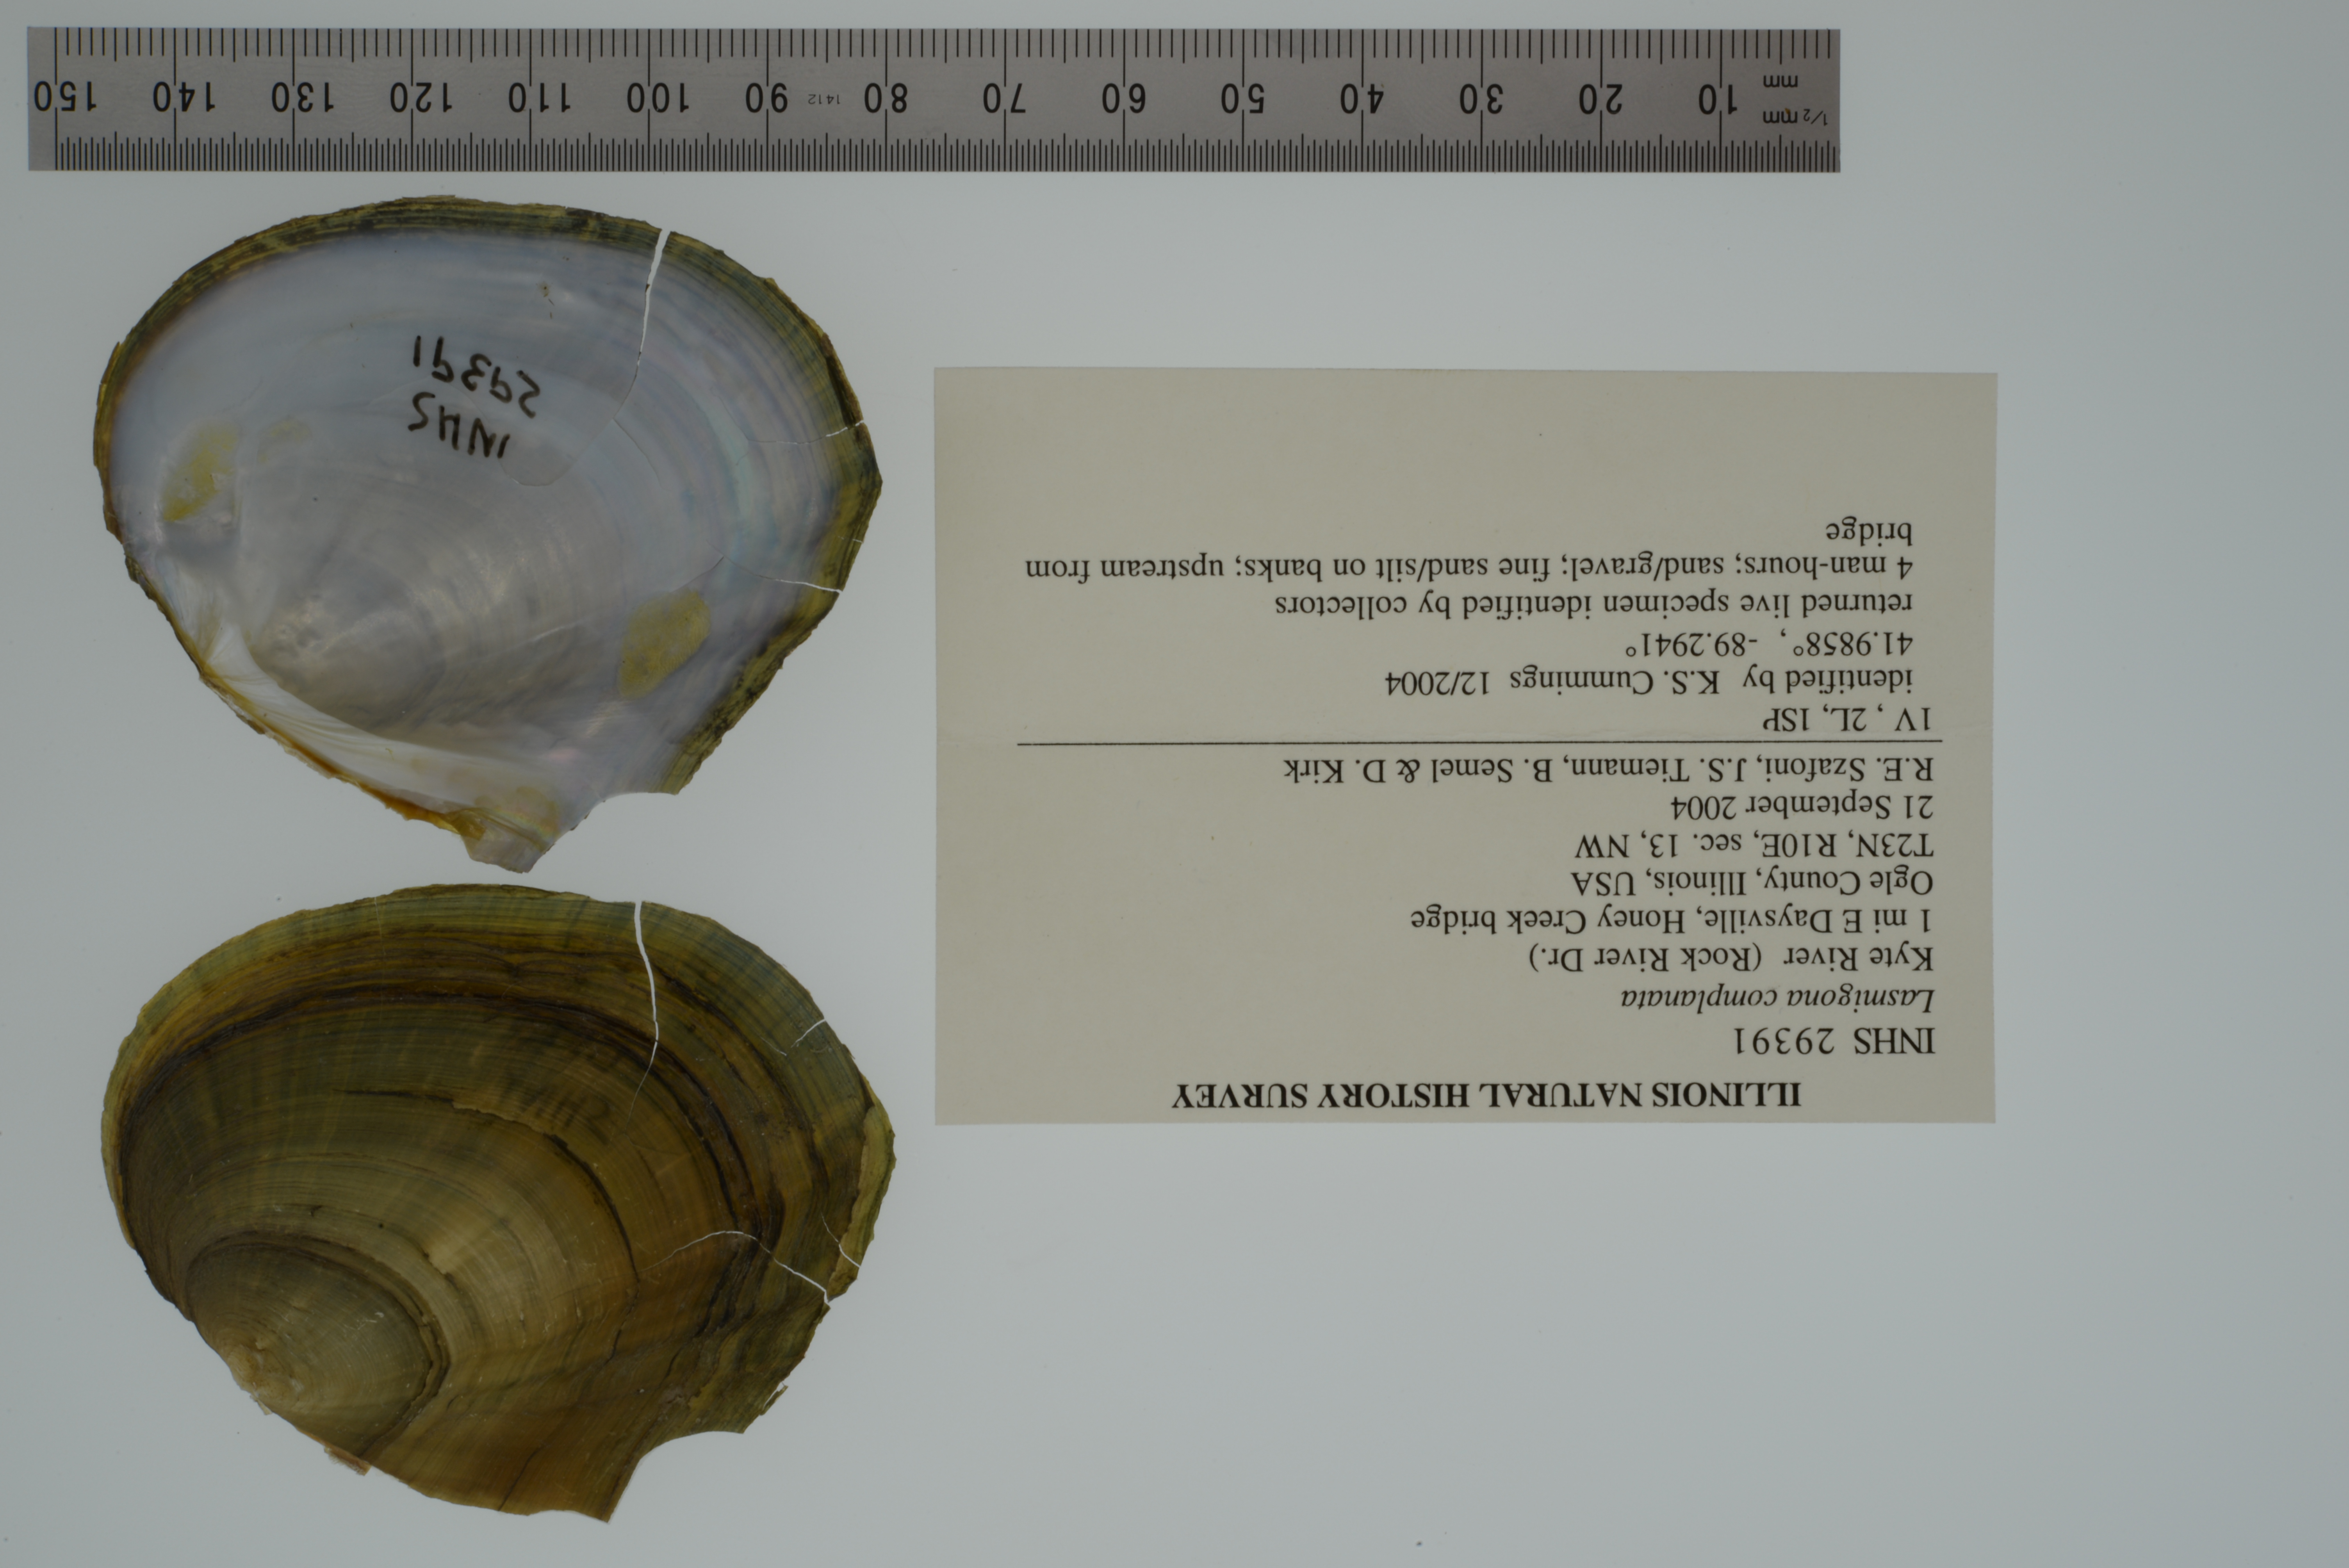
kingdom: Animalia
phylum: Mollusca
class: Bivalvia
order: Unionida
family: Unionidae
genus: Lasmigona
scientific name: Lasmigona complanata
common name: White heelsplitter
